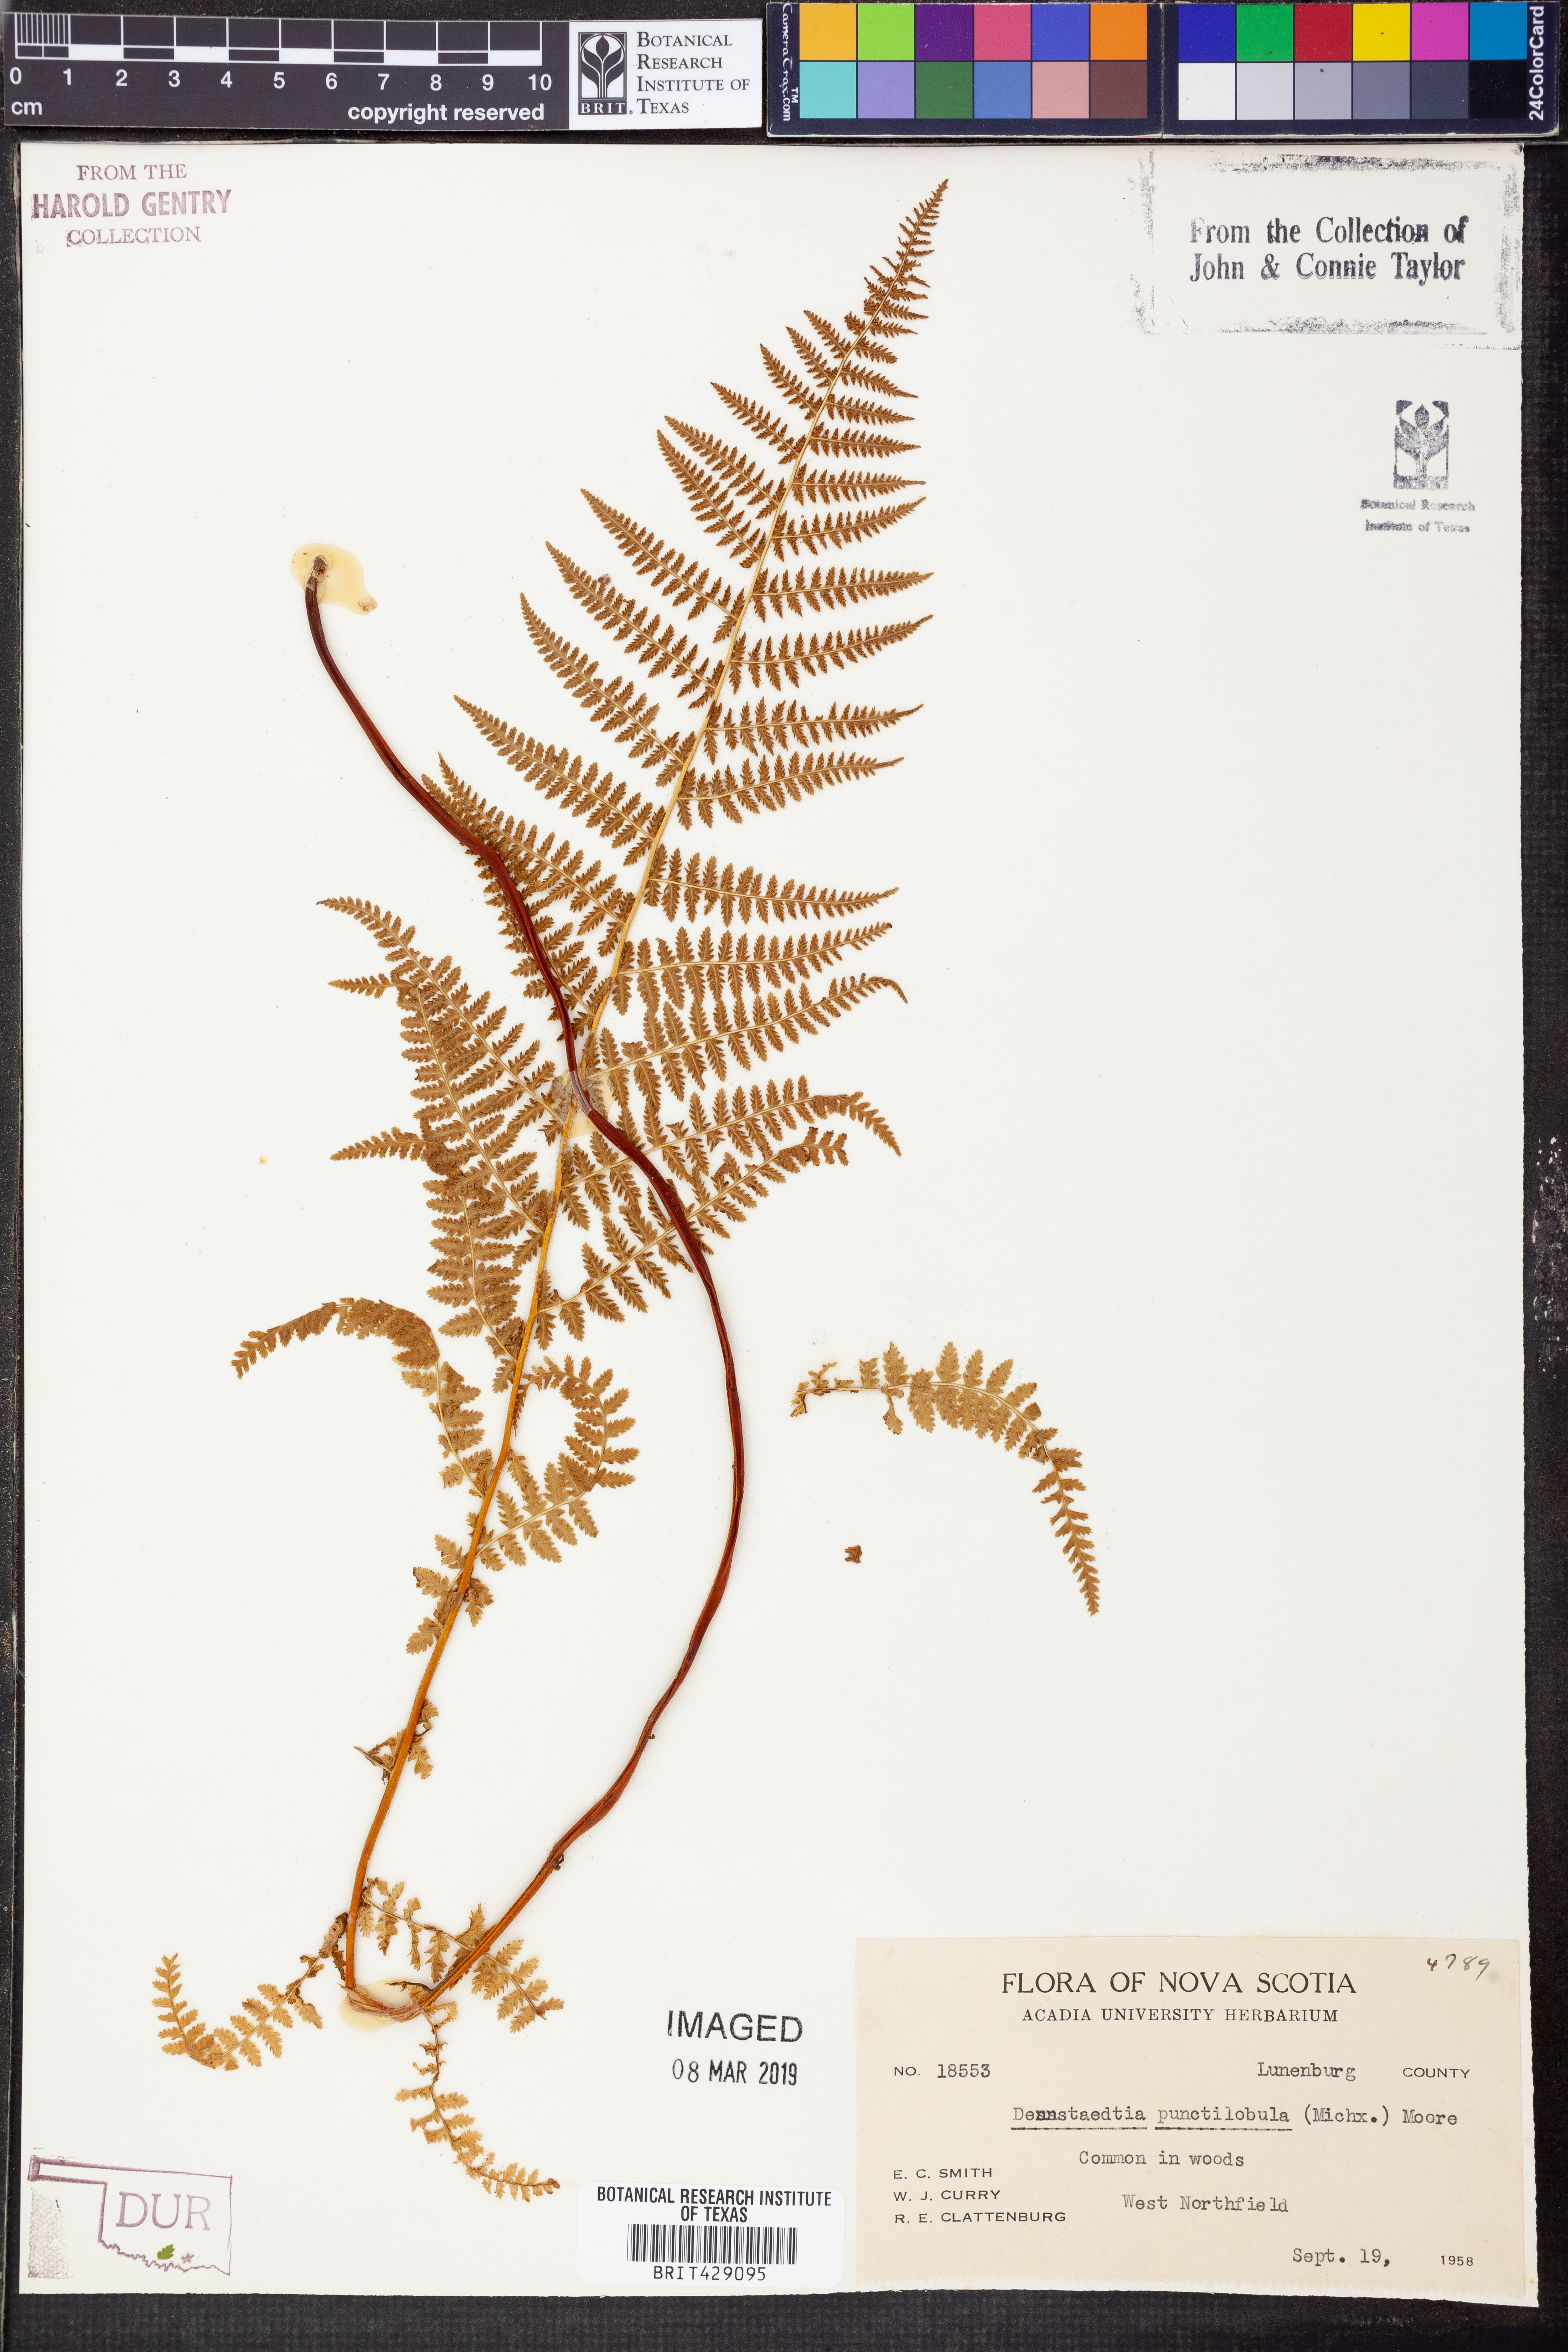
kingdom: Plantae
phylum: Tracheophyta
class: Polypodiopsida
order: Polypodiales
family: Dennstaedtiaceae
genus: Sitobolium
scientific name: Sitobolium punctilobum
